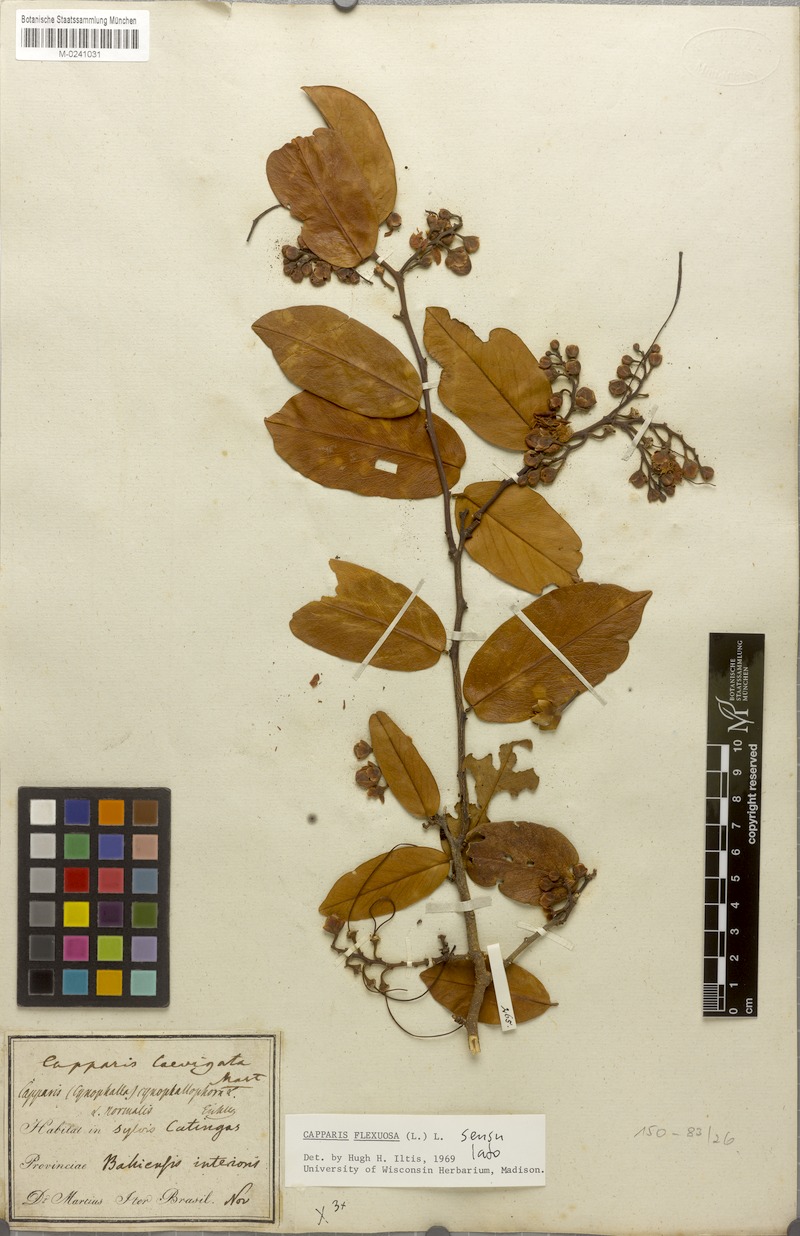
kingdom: Plantae
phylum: Tracheophyta
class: Magnoliopsida
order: Brassicales
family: Capparaceae
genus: Cynophalla
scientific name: Cynophalla flexuosa
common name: Capertree
